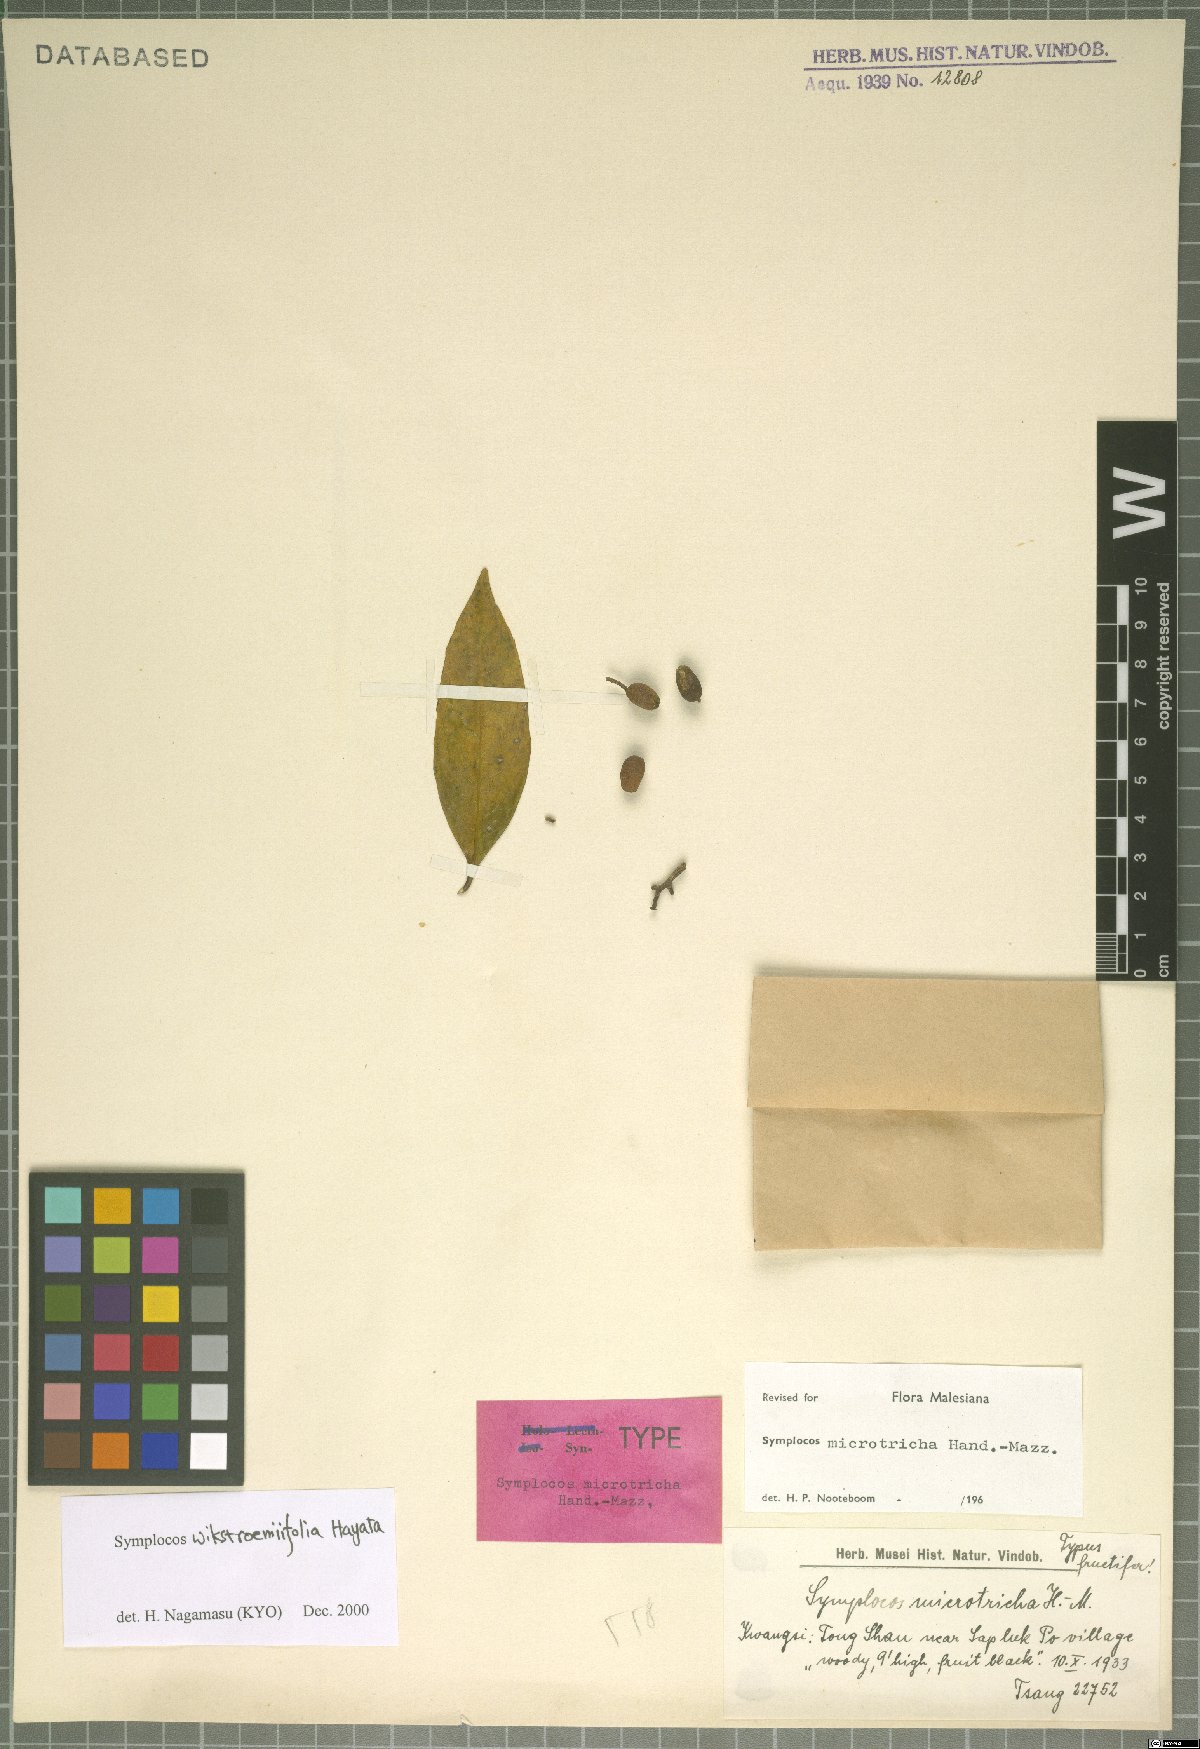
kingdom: Plantae
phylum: Tracheophyta
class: Magnoliopsida
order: Ericales
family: Symplocaceae
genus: Symplocos
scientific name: Symplocos wikstroemiifolia
